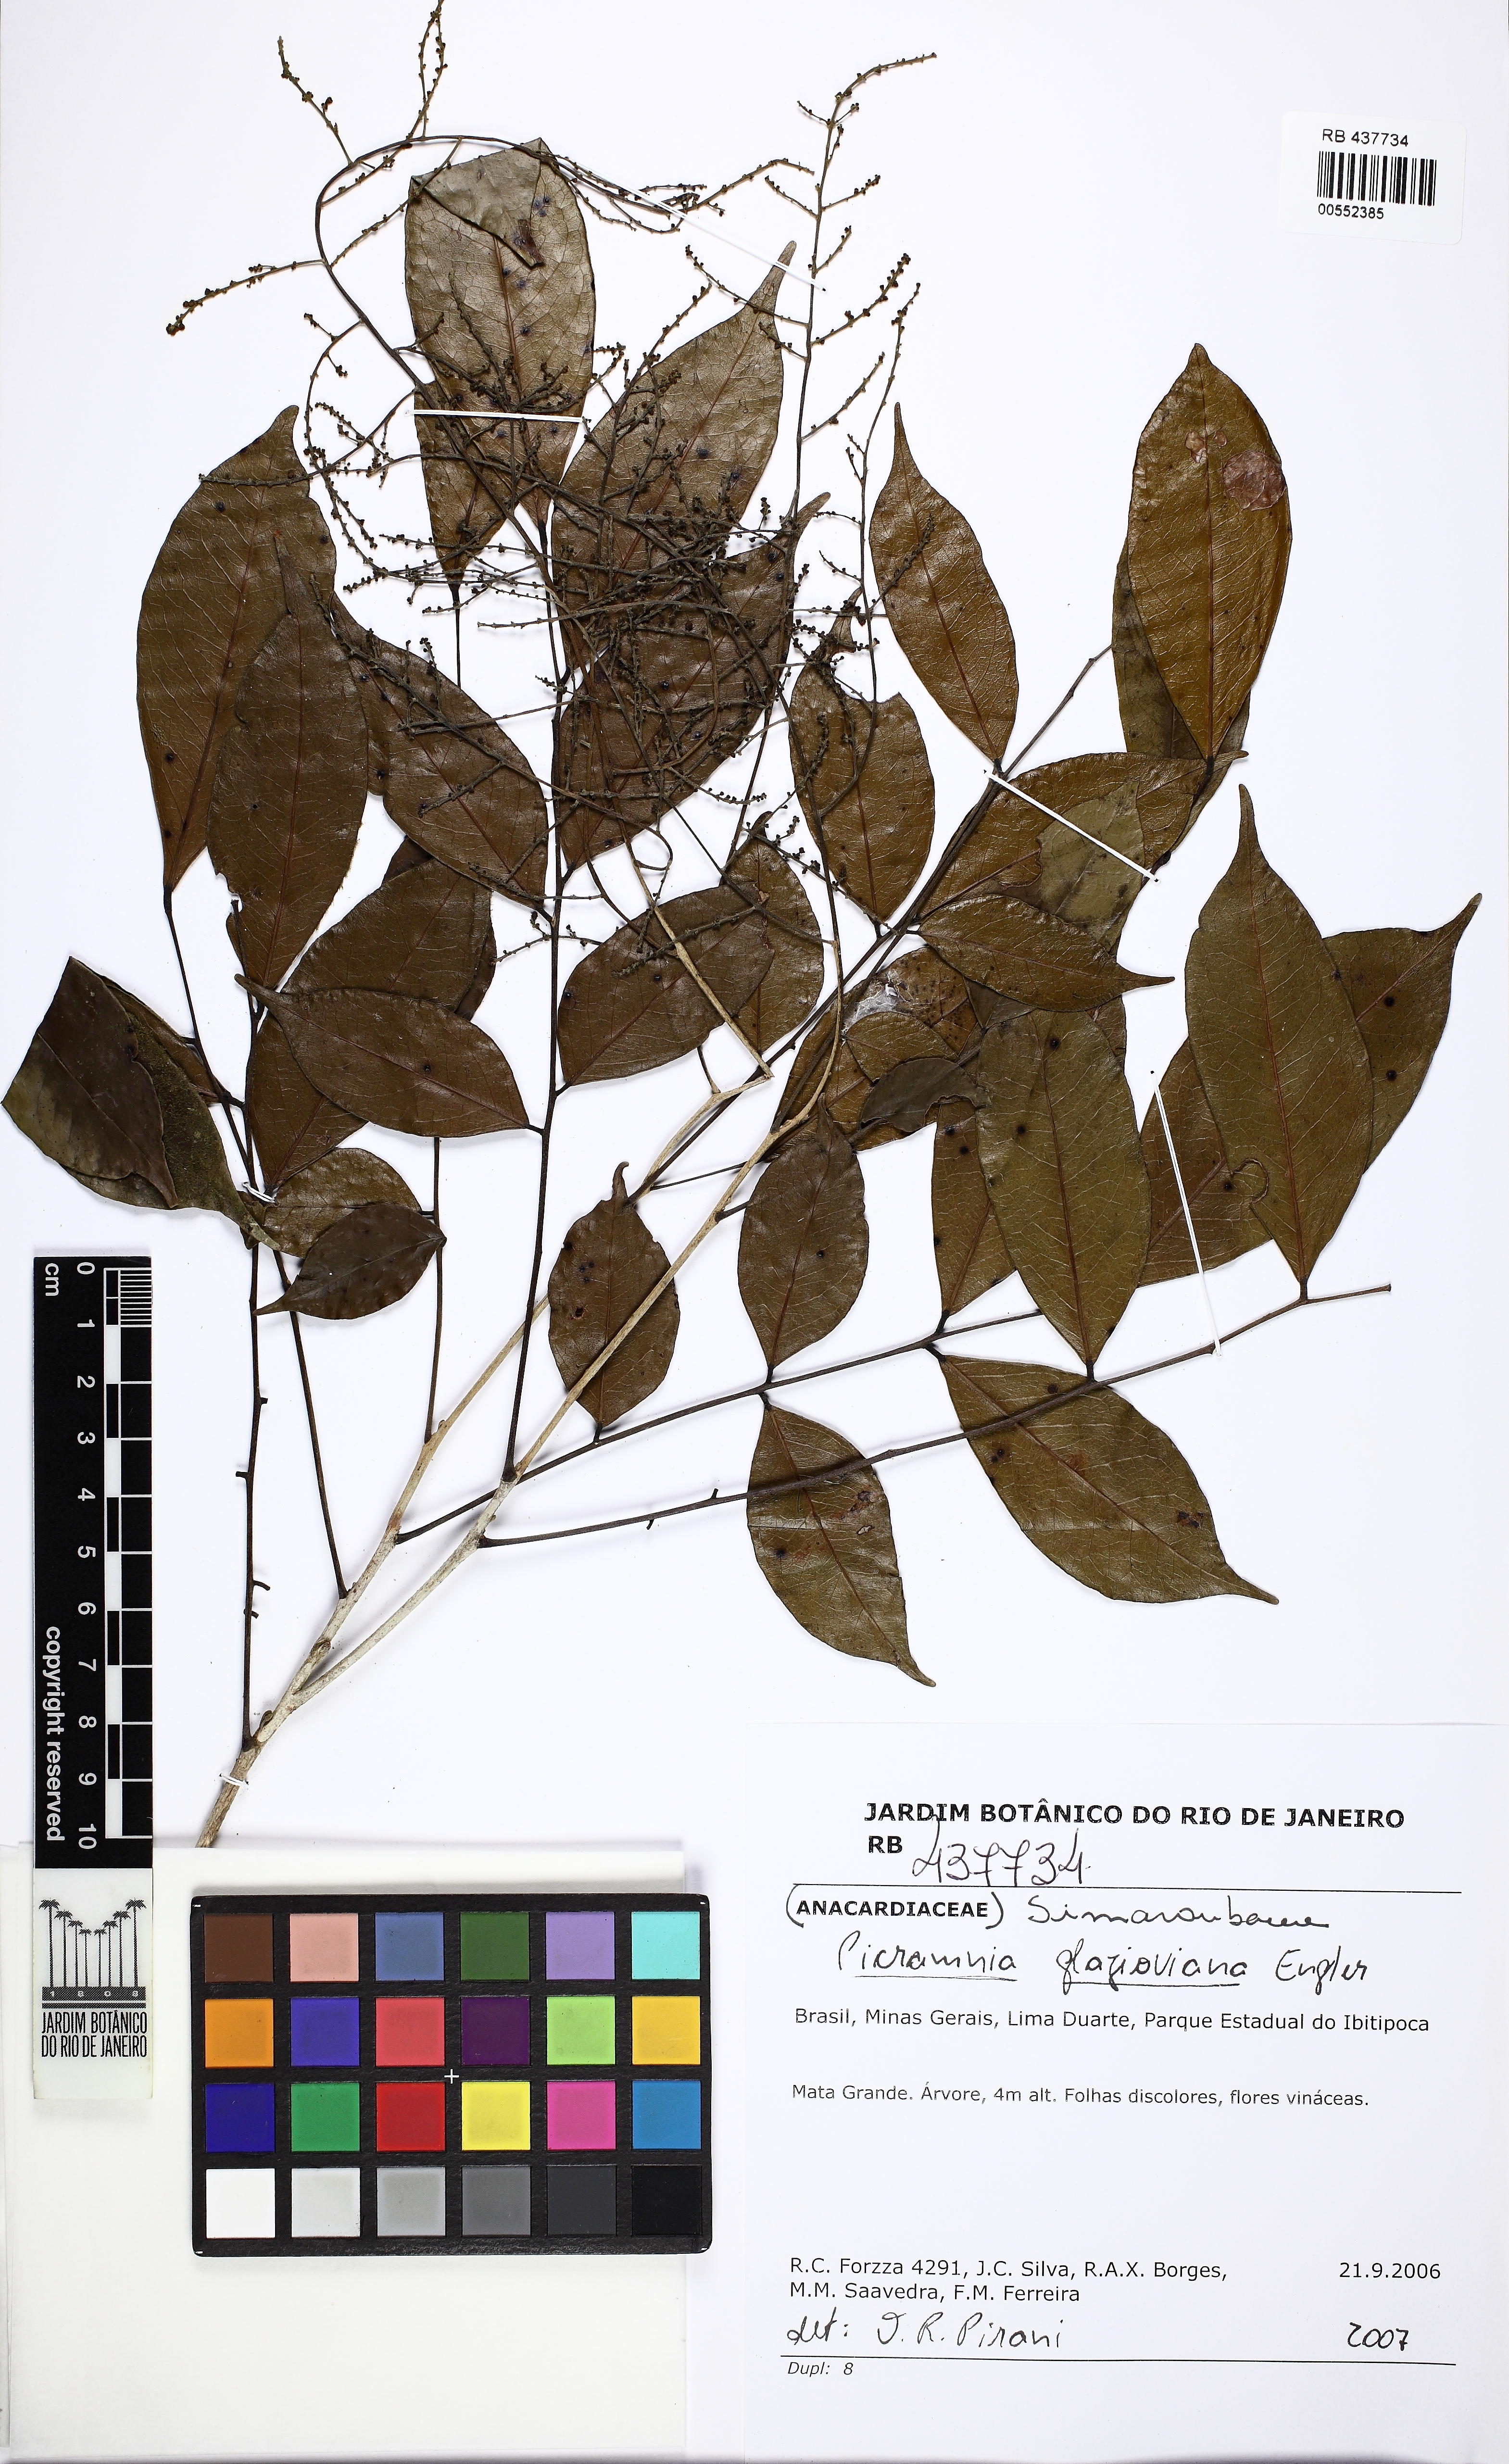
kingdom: Plantae
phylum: Tracheophyta
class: Magnoliopsida
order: Picramniales
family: Picramniaceae
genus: Picramnia
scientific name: Picramnia glazioviana
